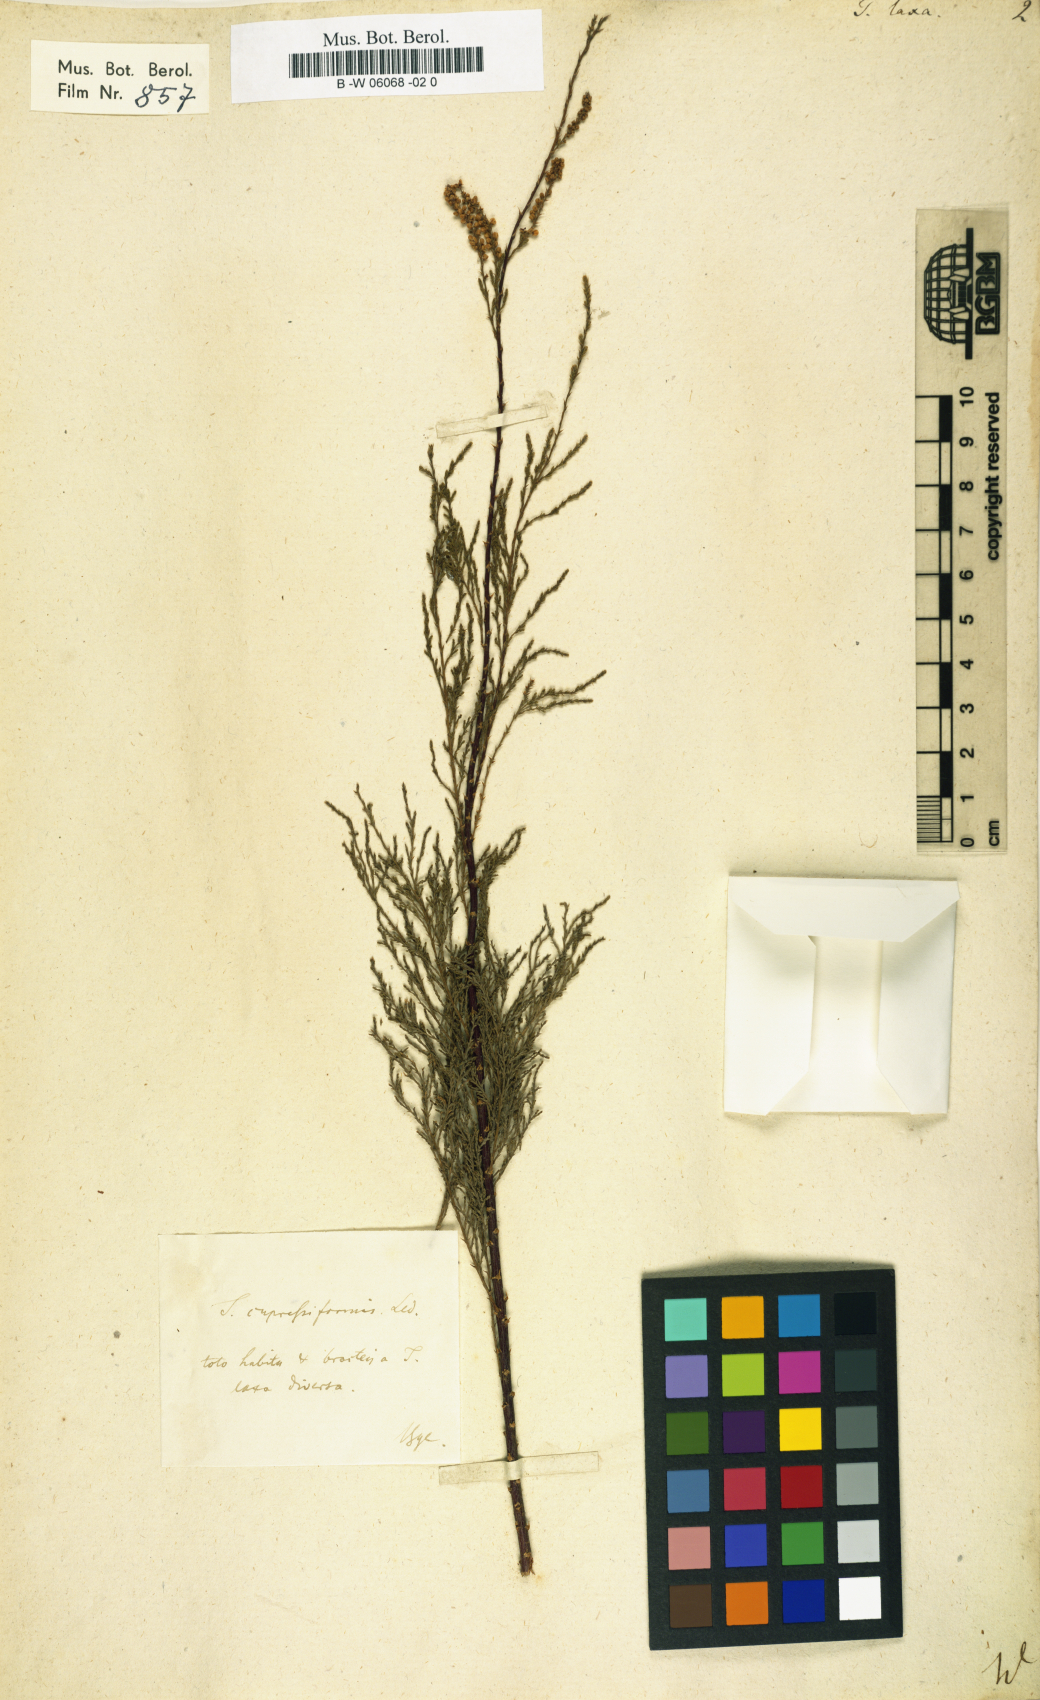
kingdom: Plantae
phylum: Tracheophyta
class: Magnoliopsida
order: Caryophyllales
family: Tamaricaceae
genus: Tamarix
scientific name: Tamarix laxa
